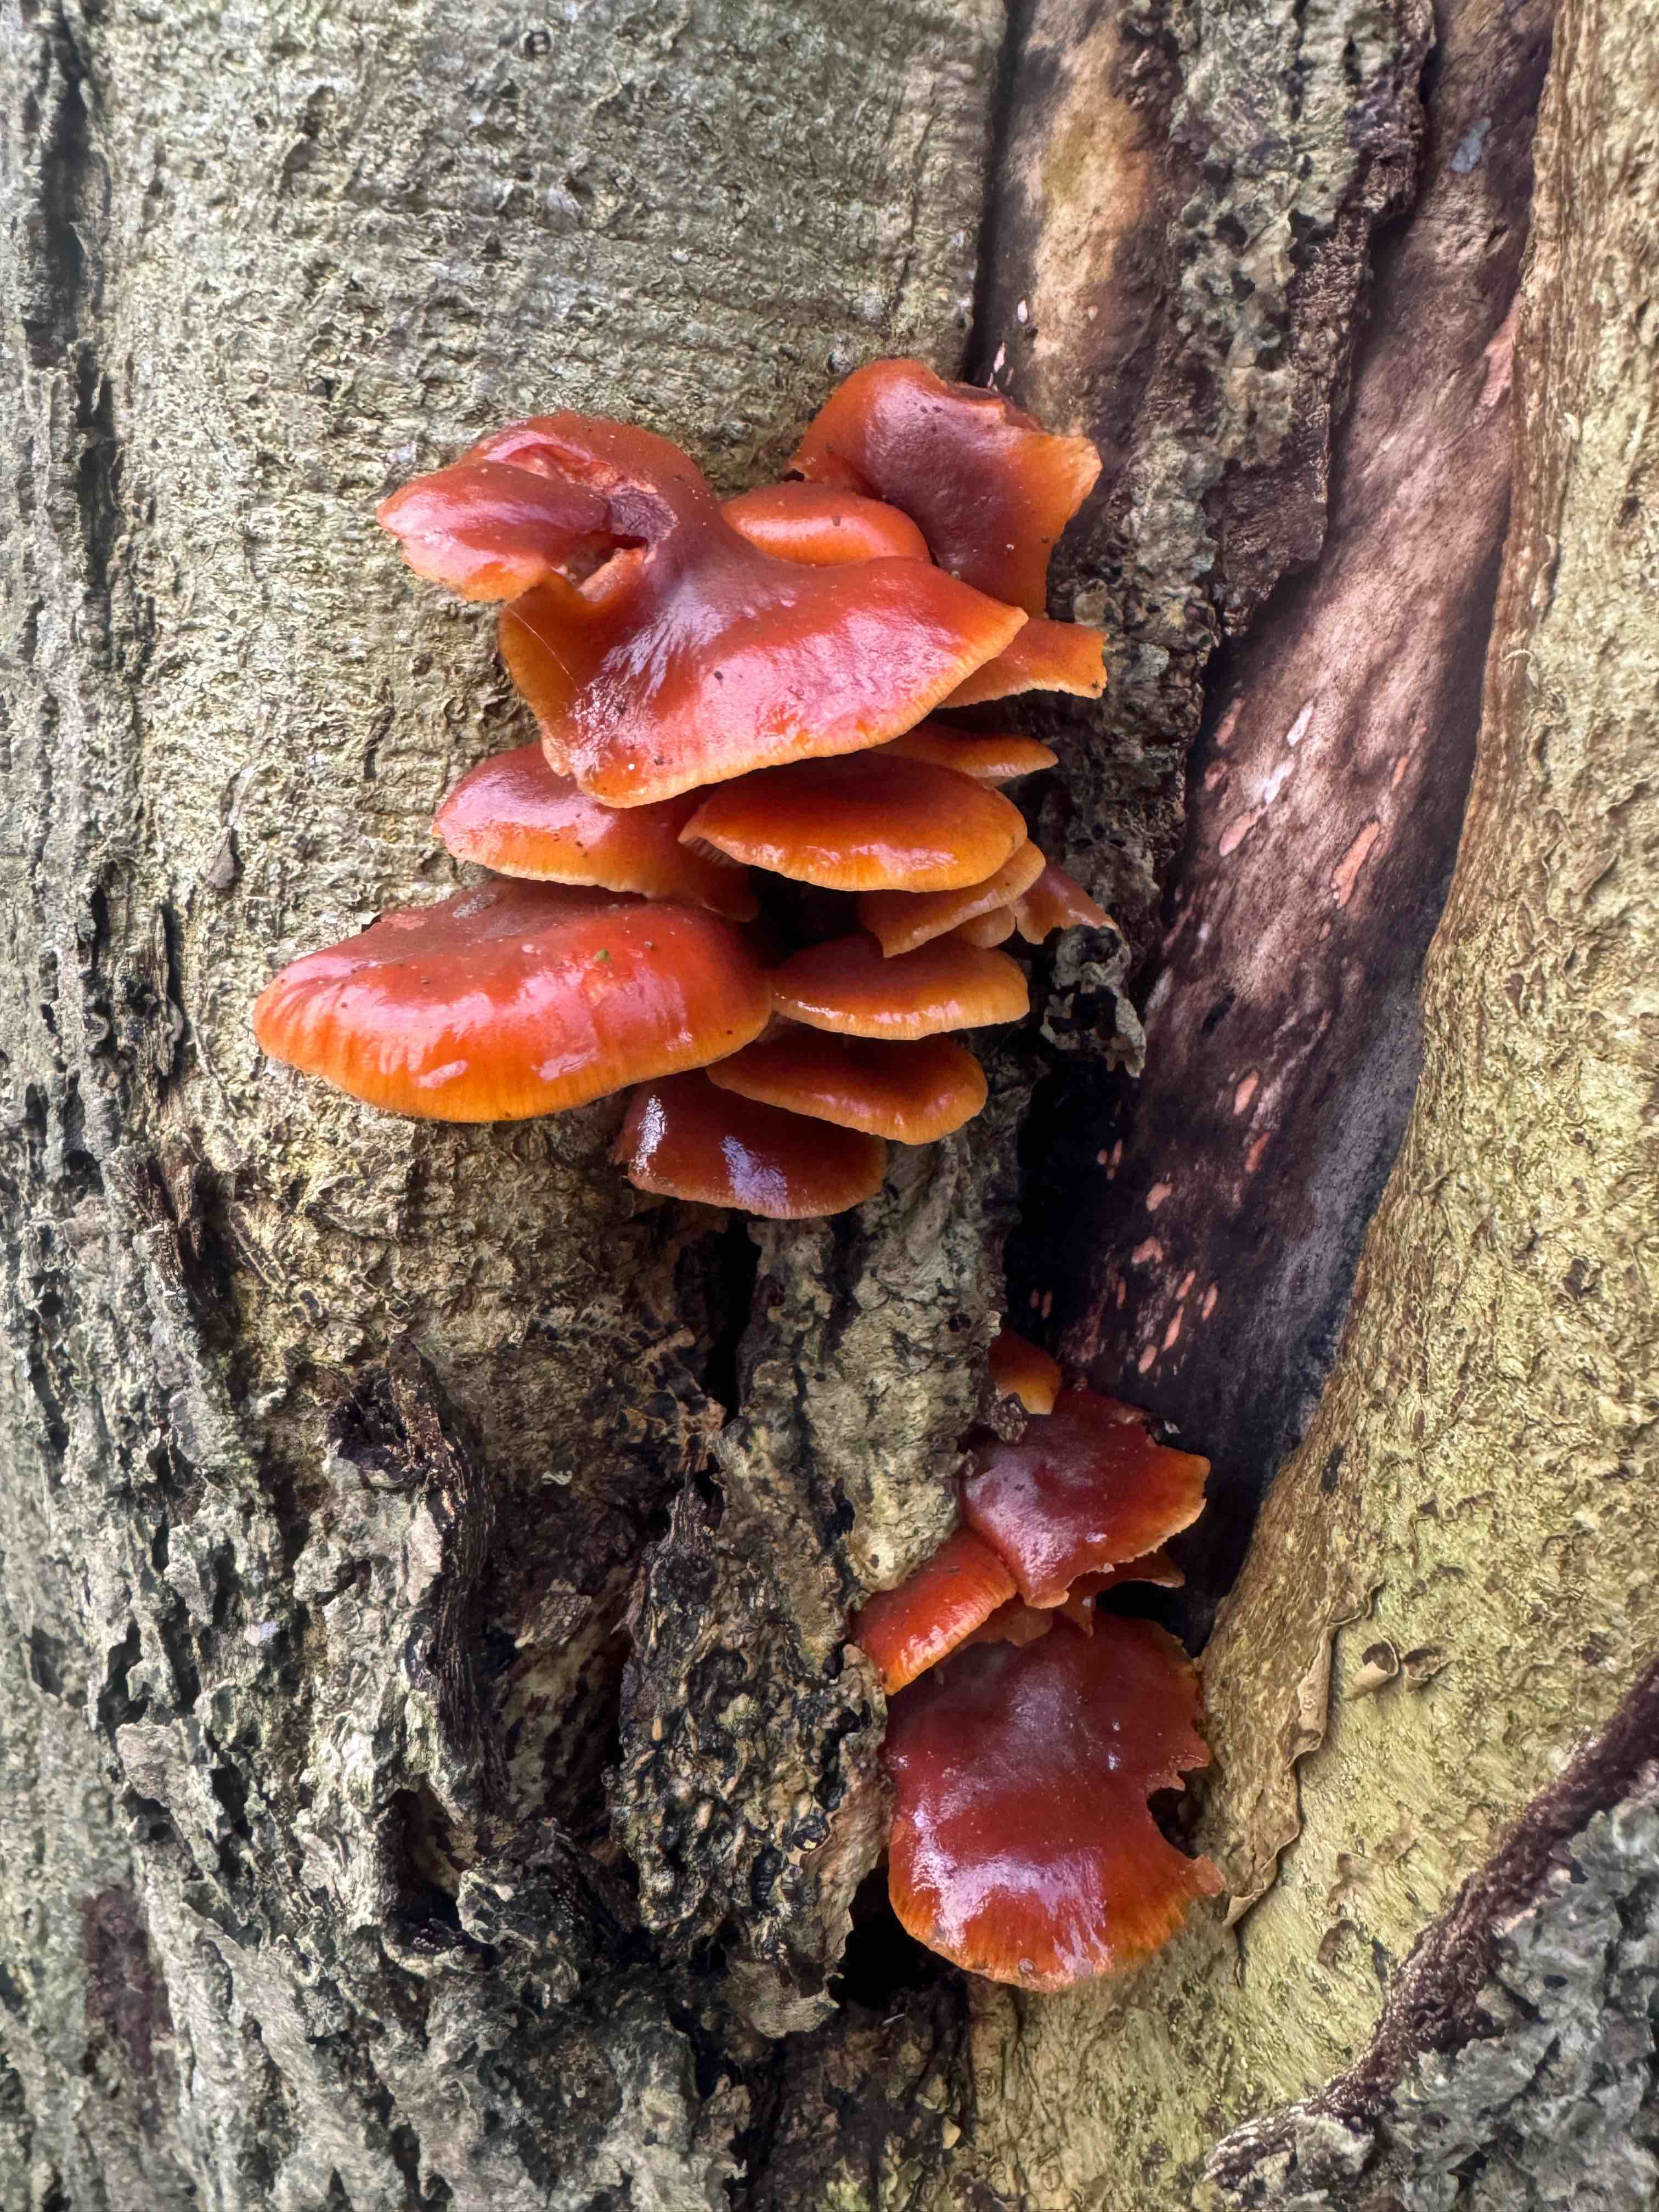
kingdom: Fungi
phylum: Basidiomycota
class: Agaricomycetes
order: Agaricales
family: Physalacriaceae
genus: Flammulina
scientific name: Flammulina velutipes
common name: gul fløjlsfod
